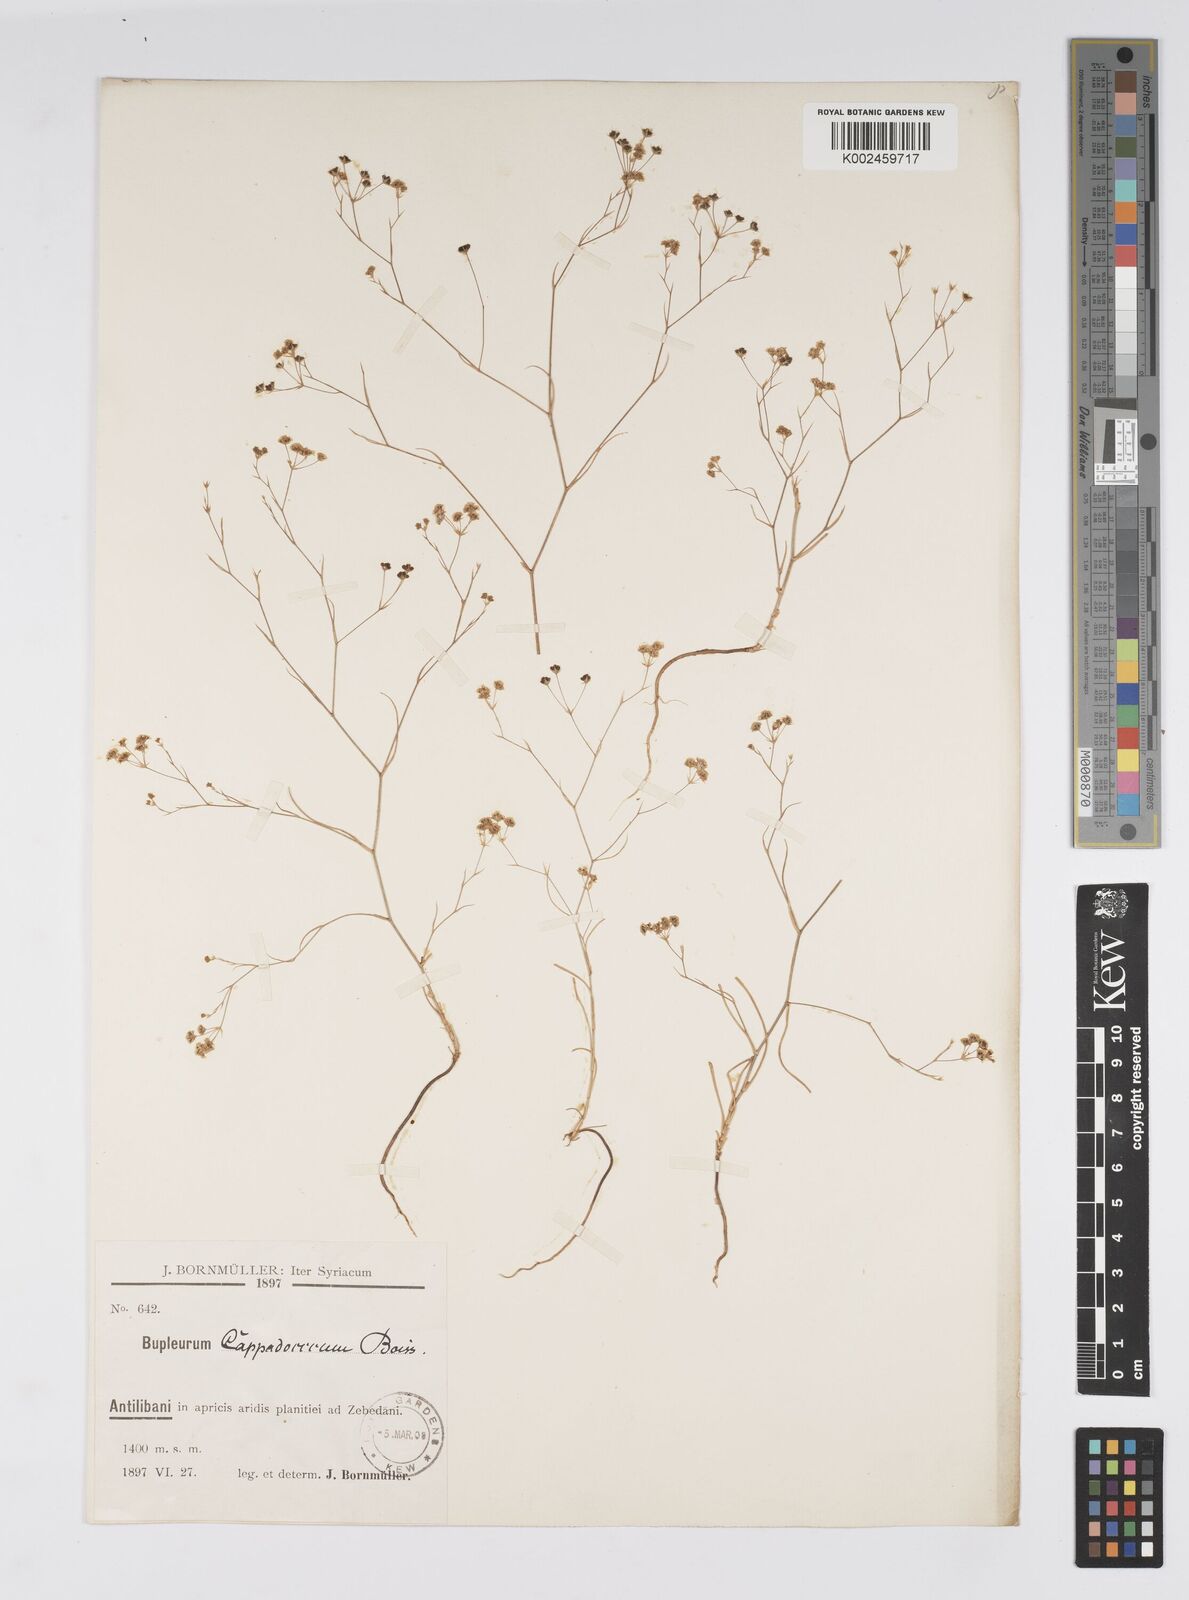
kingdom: Plantae
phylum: Tracheophyta
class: Magnoliopsida
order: Apiales
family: Apiaceae
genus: Bupleurum
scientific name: Bupleurum cappadocicum
